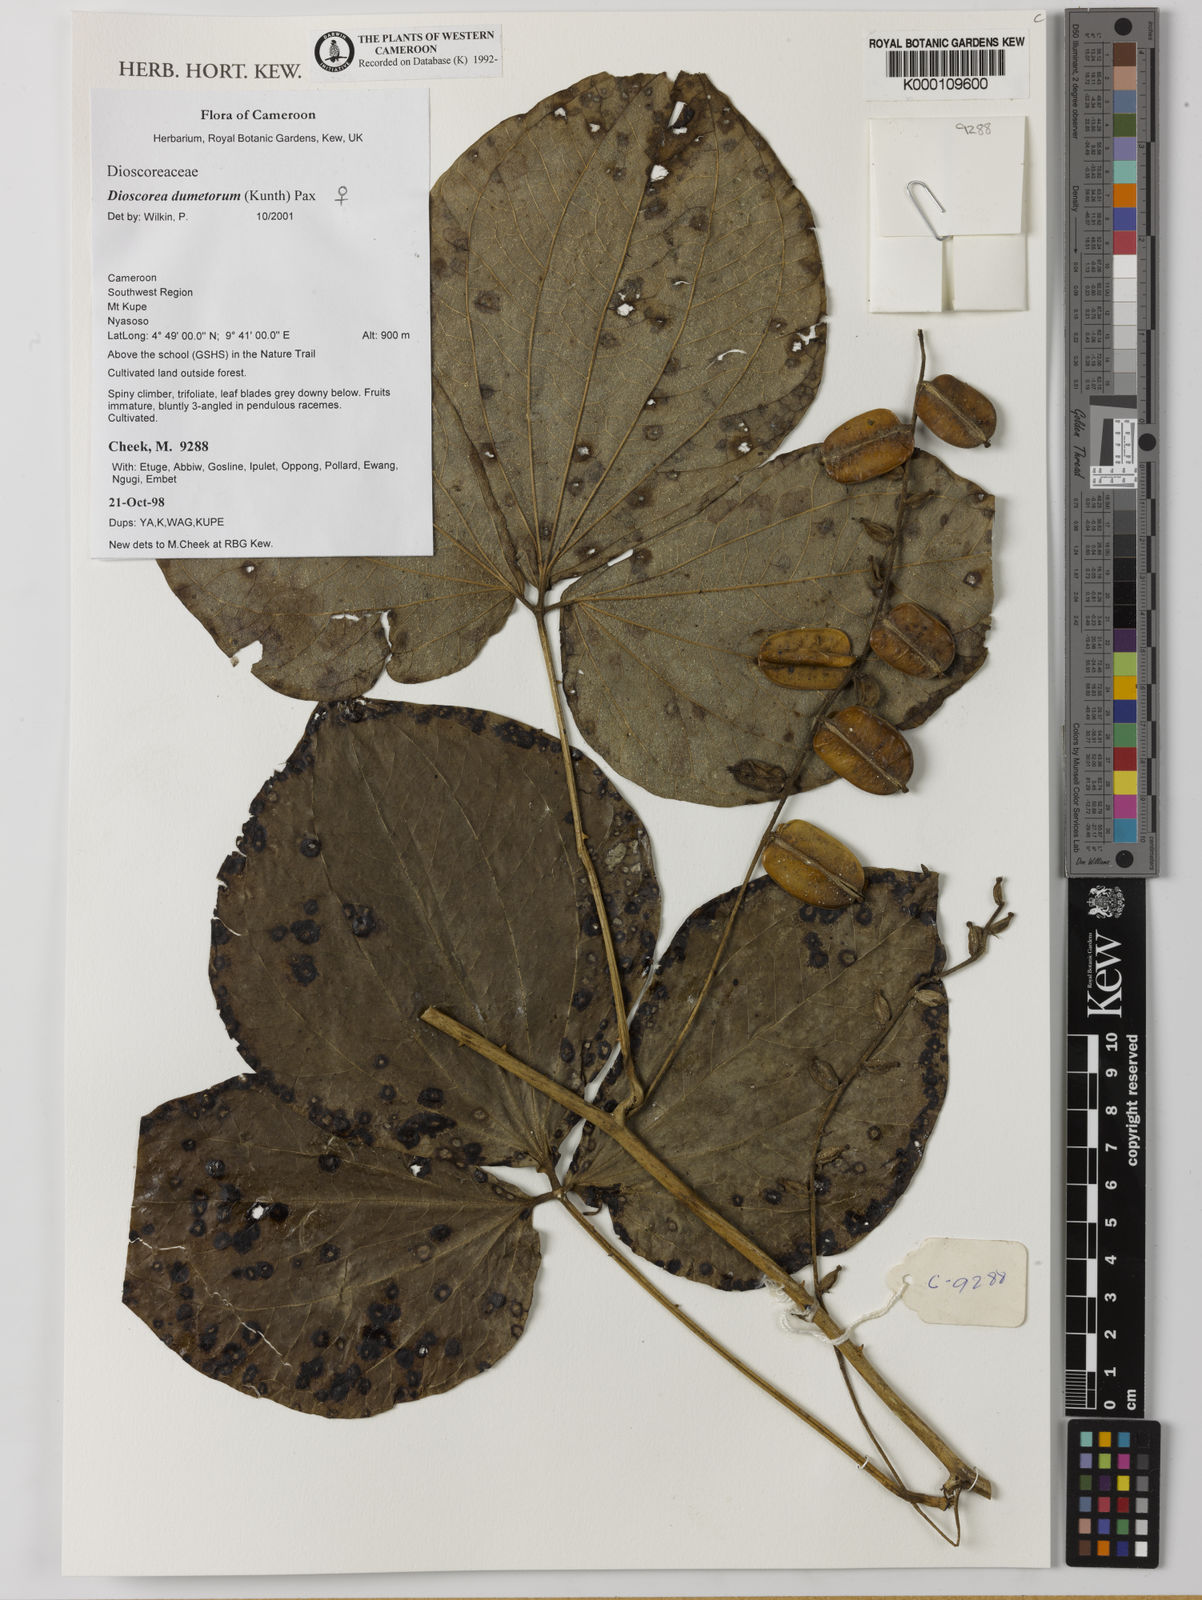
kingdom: Plantae
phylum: Tracheophyta
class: Liliopsida
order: Dioscoreales
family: Dioscoreaceae
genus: Dioscorea
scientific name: Dioscorea dumetorum
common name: African bitter yam
